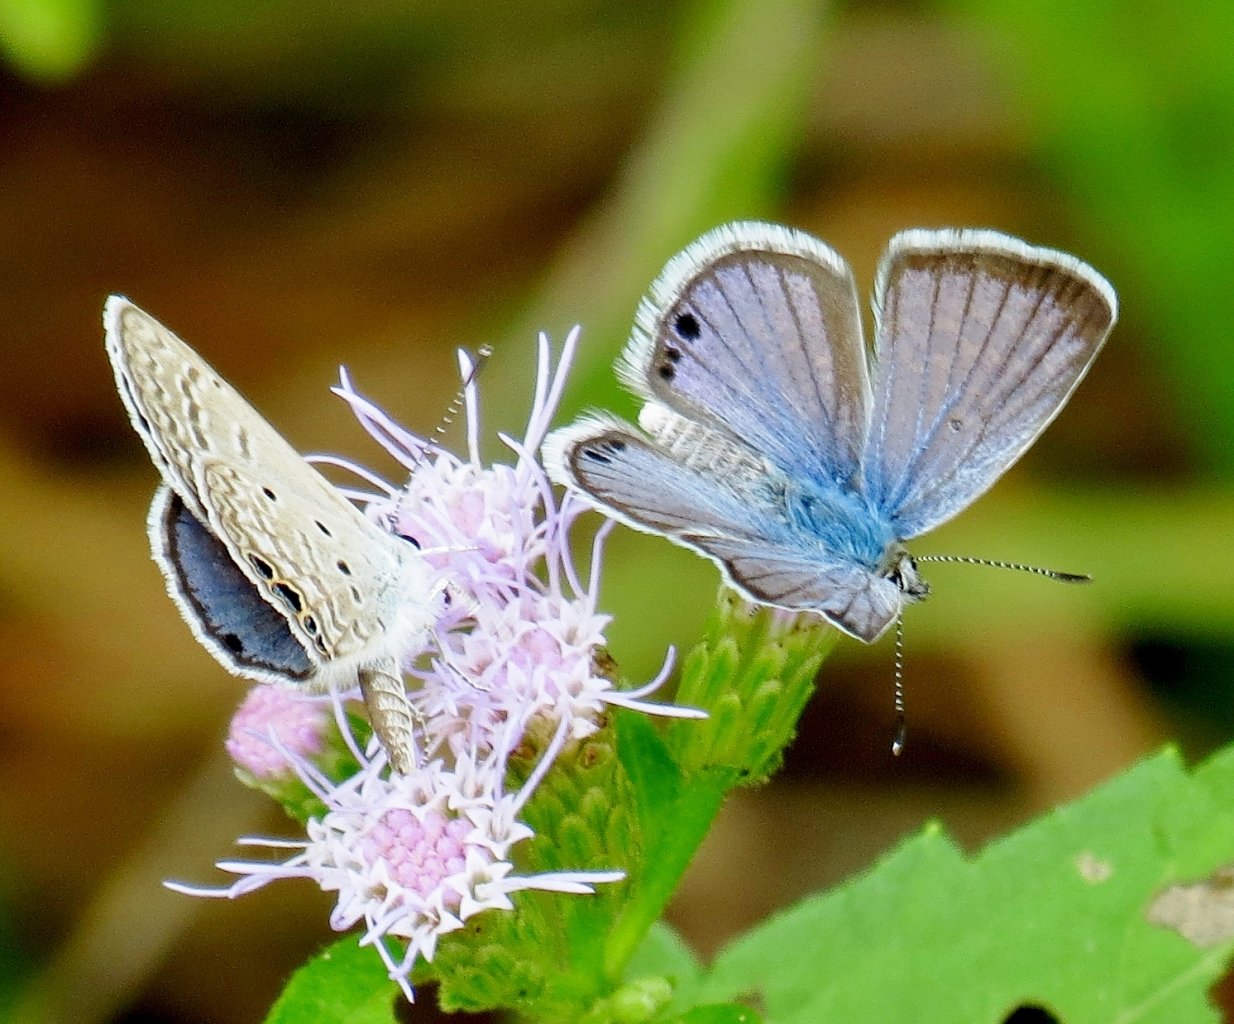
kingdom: Animalia
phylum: Arthropoda
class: Insecta
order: Lepidoptera
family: Lycaenidae
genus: Echinargus
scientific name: Echinargus isola
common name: Reakirt's Blue
